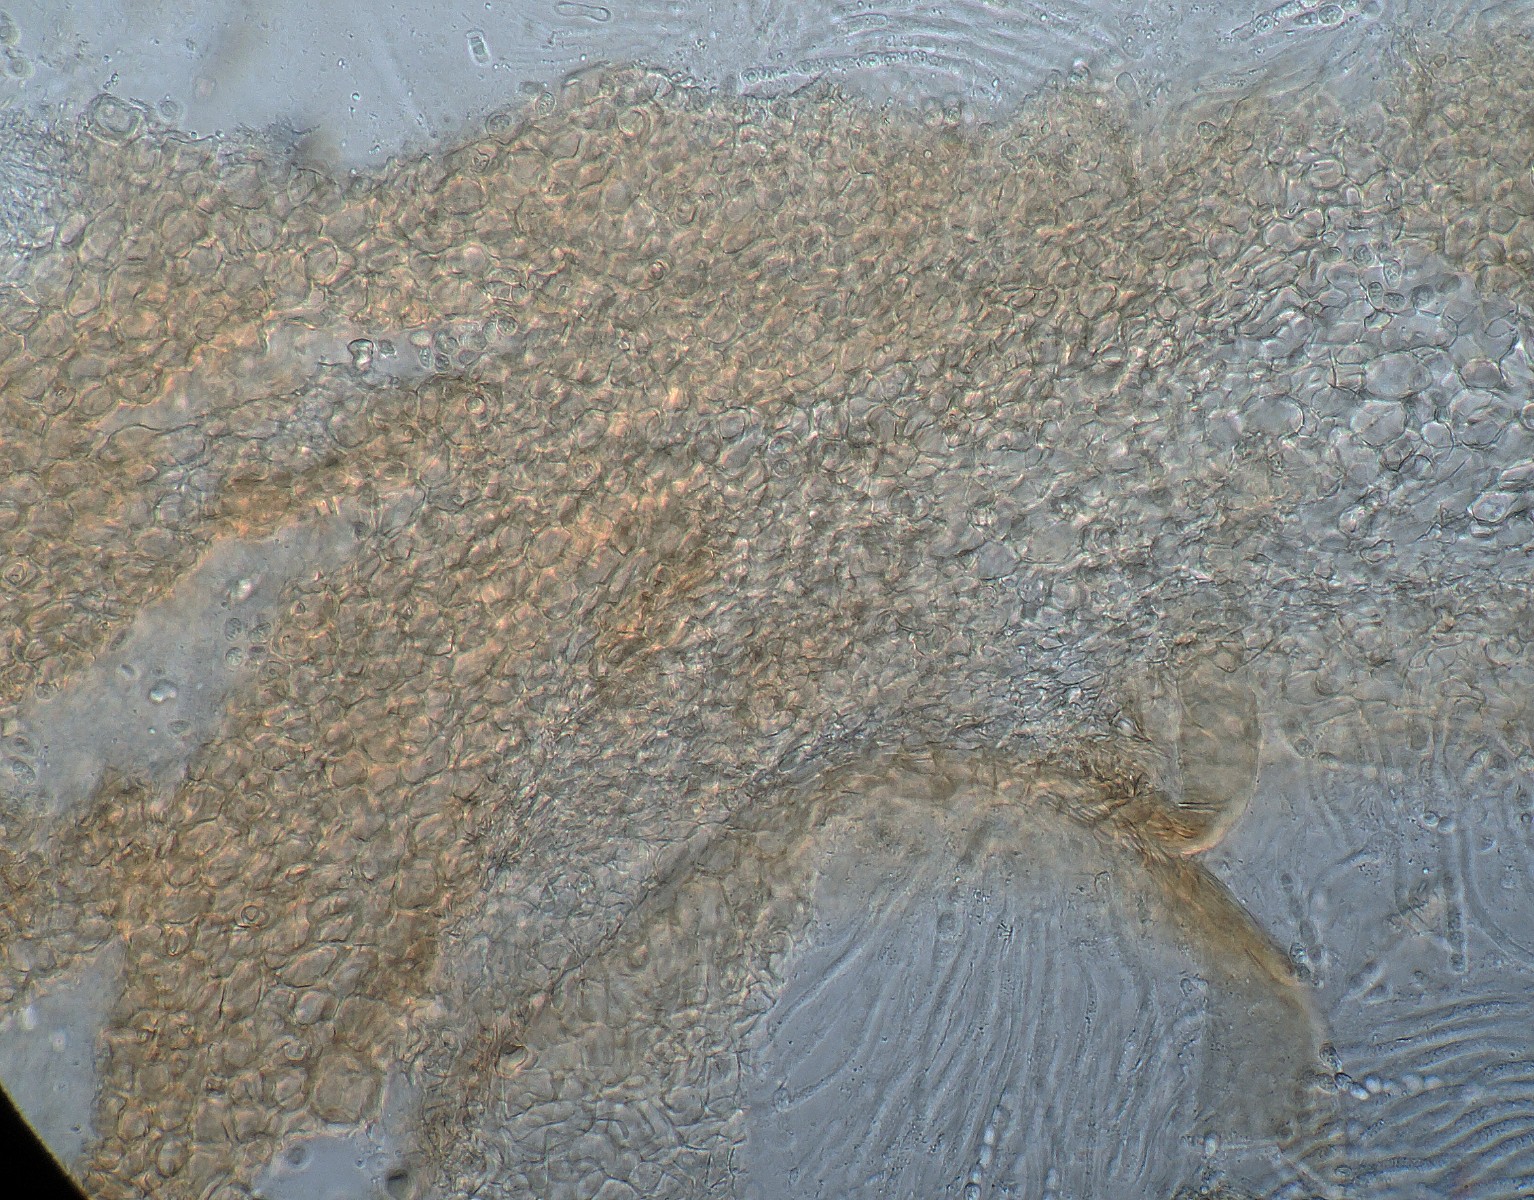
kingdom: Fungi
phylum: Ascomycota
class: Sordariomycetes
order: Hypocreales
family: Hypocreaceae
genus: Trichoderma
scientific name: Trichoderma silvae-virgineae
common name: urskovs-kødkerne
